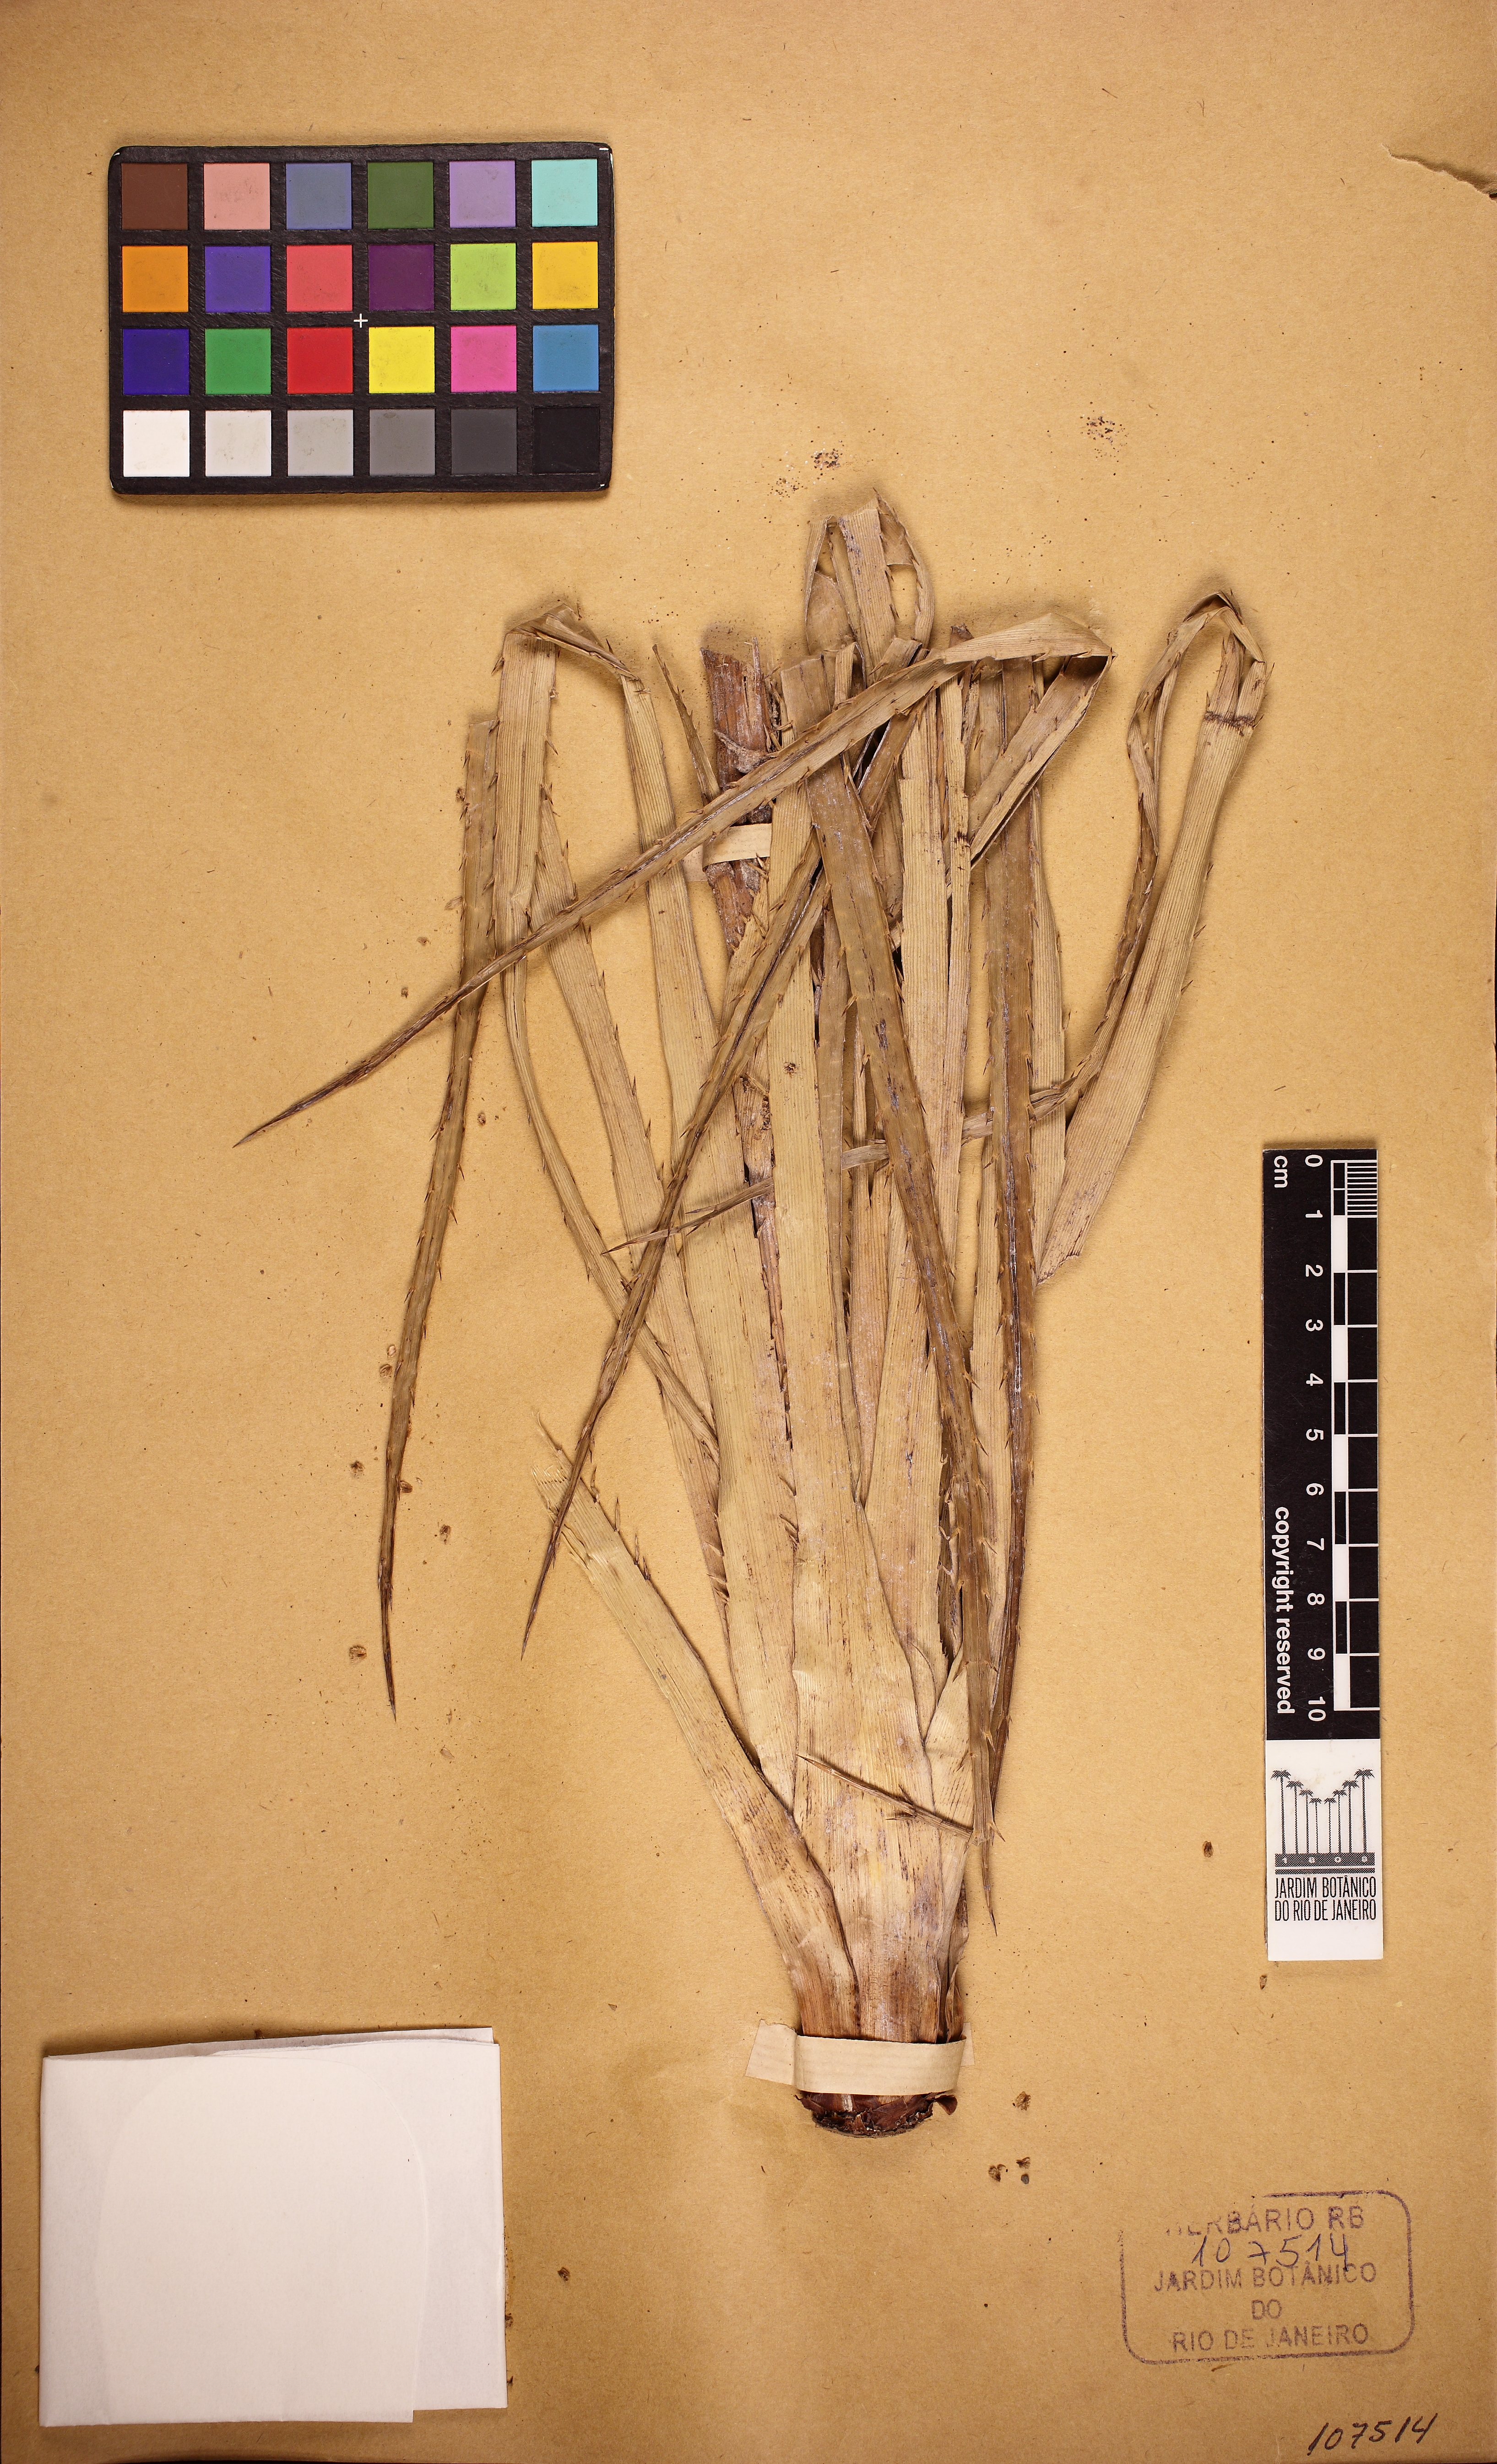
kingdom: Plantae
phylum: Tracheophyta
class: Magnoliopsida
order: Apiales
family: Apiaceae
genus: Eryngium
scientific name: Eryngium horridum
